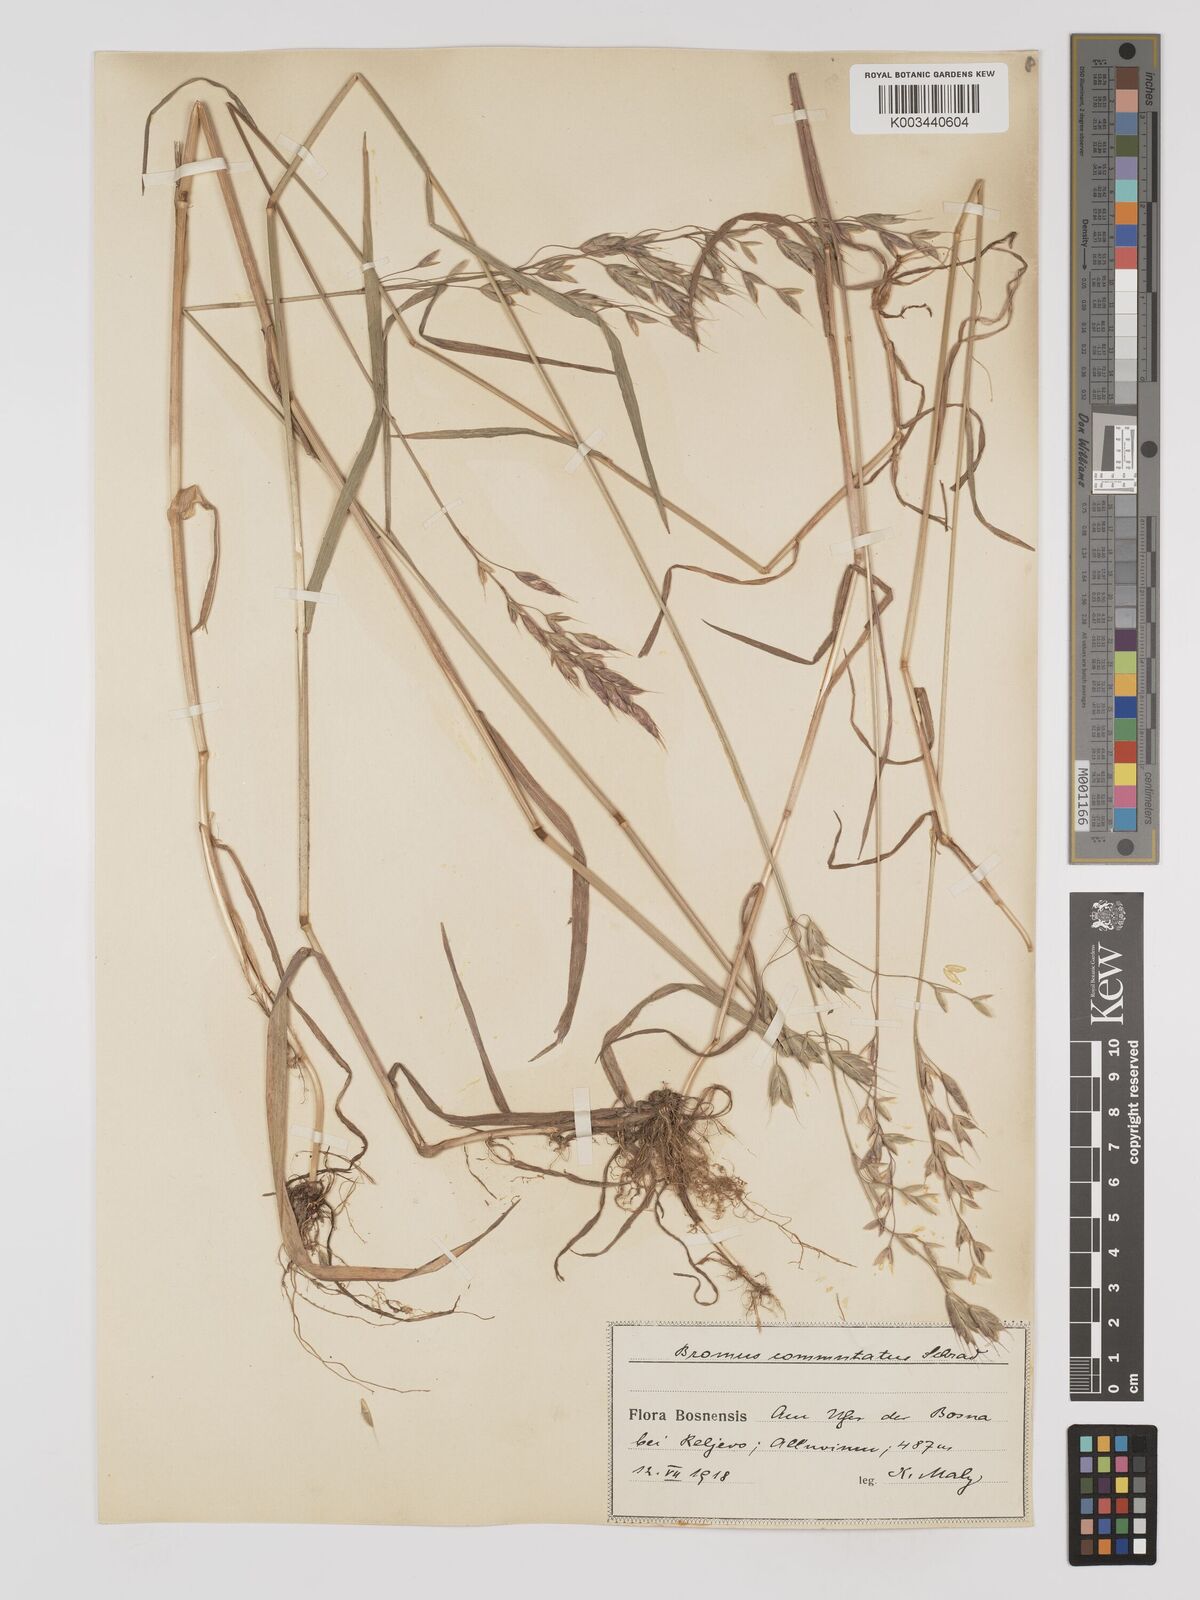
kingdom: Plantae
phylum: Tracheophyta
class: Liliopsida
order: Poales
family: Poaceae
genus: Bromus
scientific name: Bromus racemosus
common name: Bald brome
